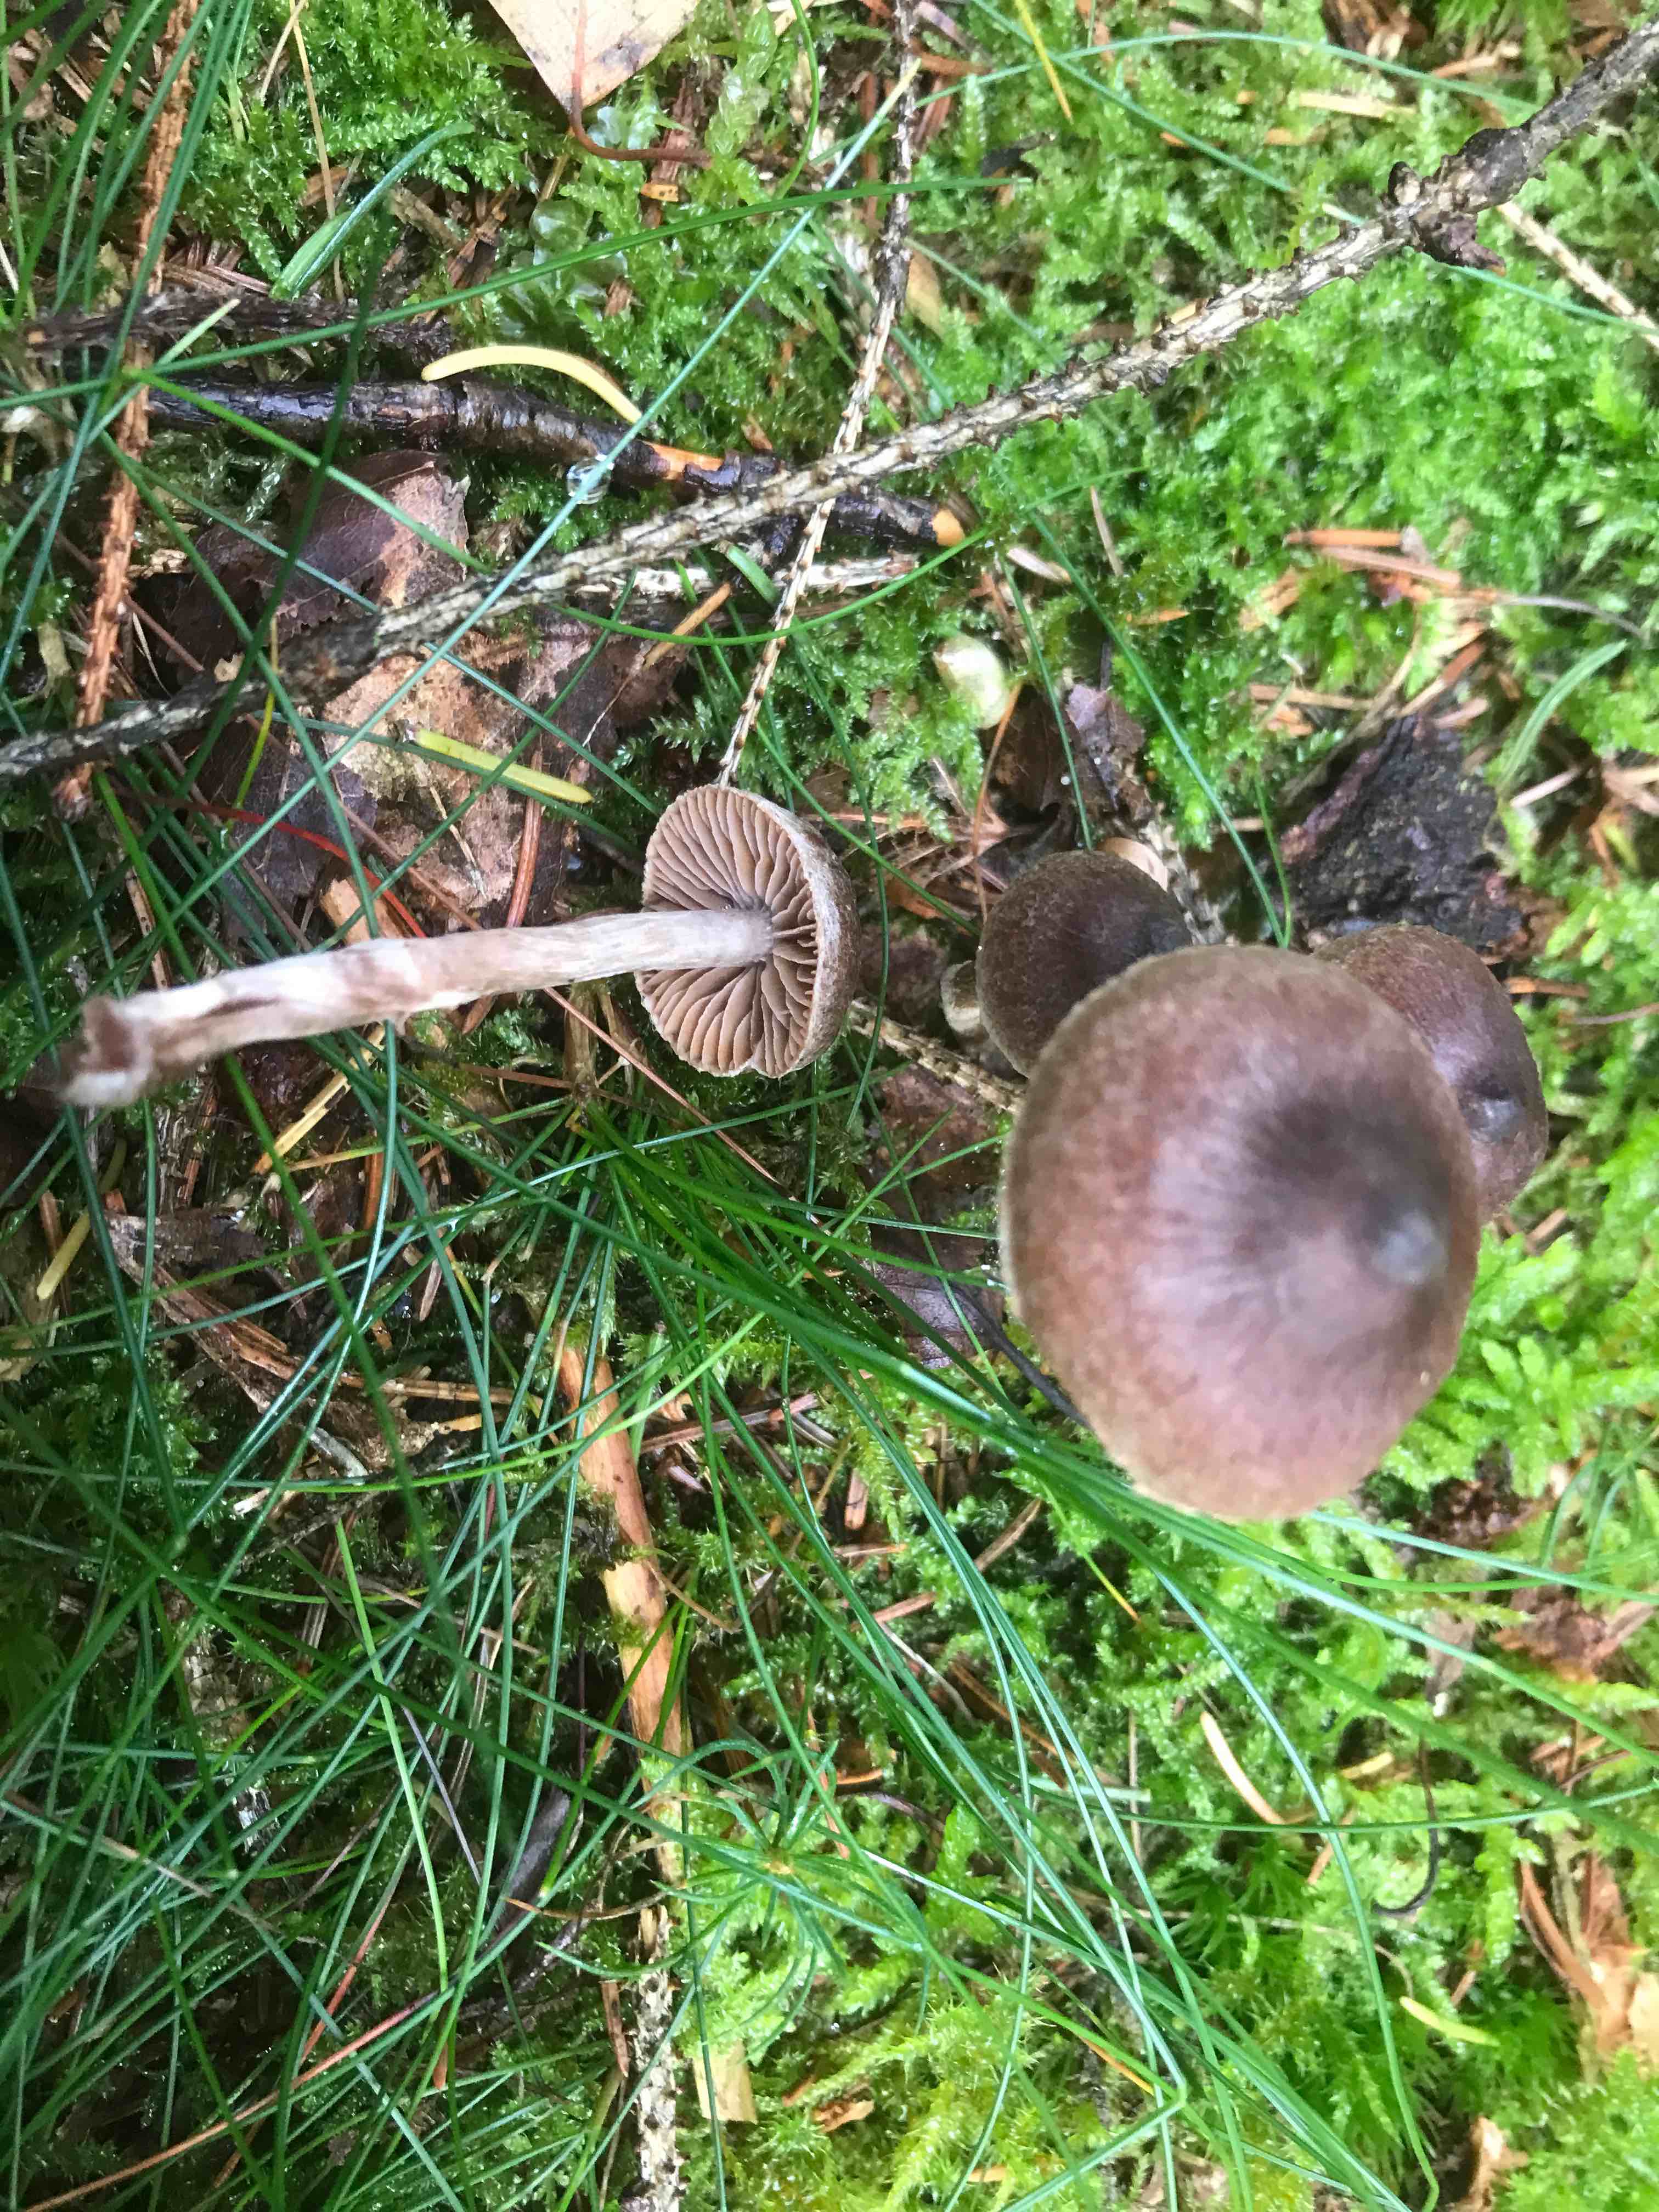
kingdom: Fungi
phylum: Basidiomycota
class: Agaricomycetes
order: Agaricales
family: Cortinariaceae
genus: Cortinarius
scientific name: Cortinarius
